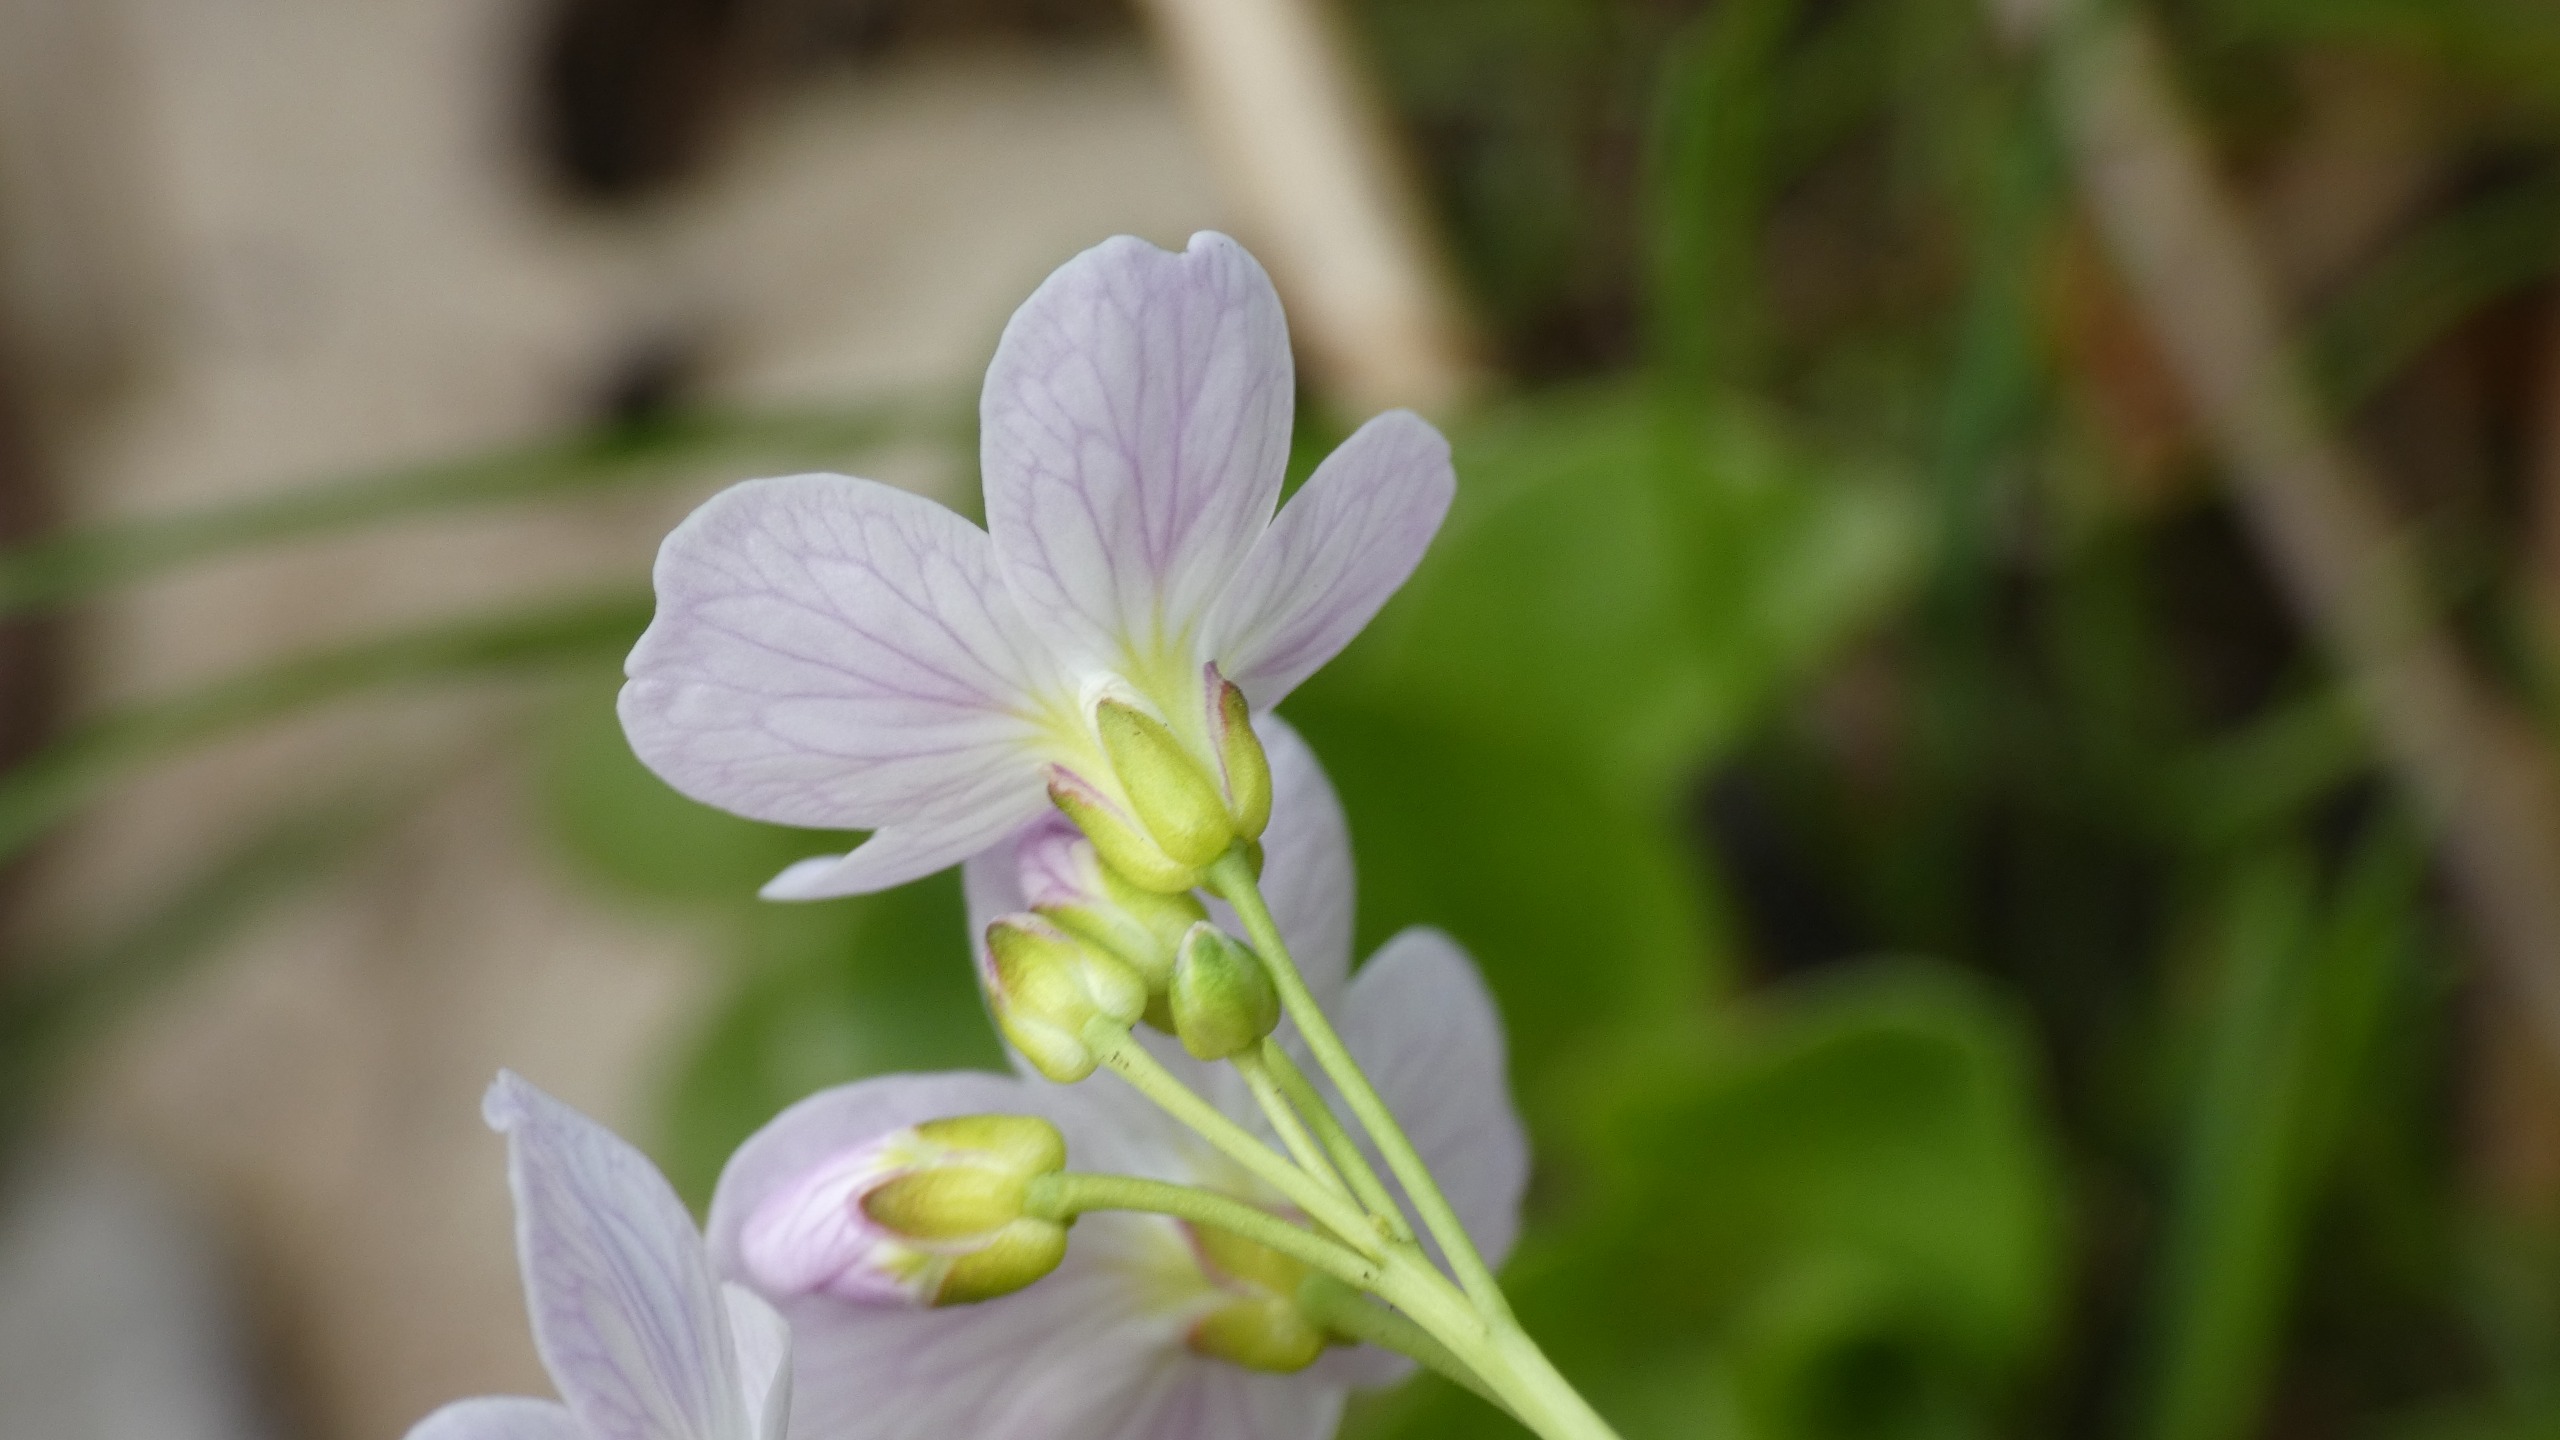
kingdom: Plantae
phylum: Tracheophyta
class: Magnoliopsida
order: Brassicales
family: Brassicaceae
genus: Cardamine
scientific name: Cardamine pratensis
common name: Engkarse
